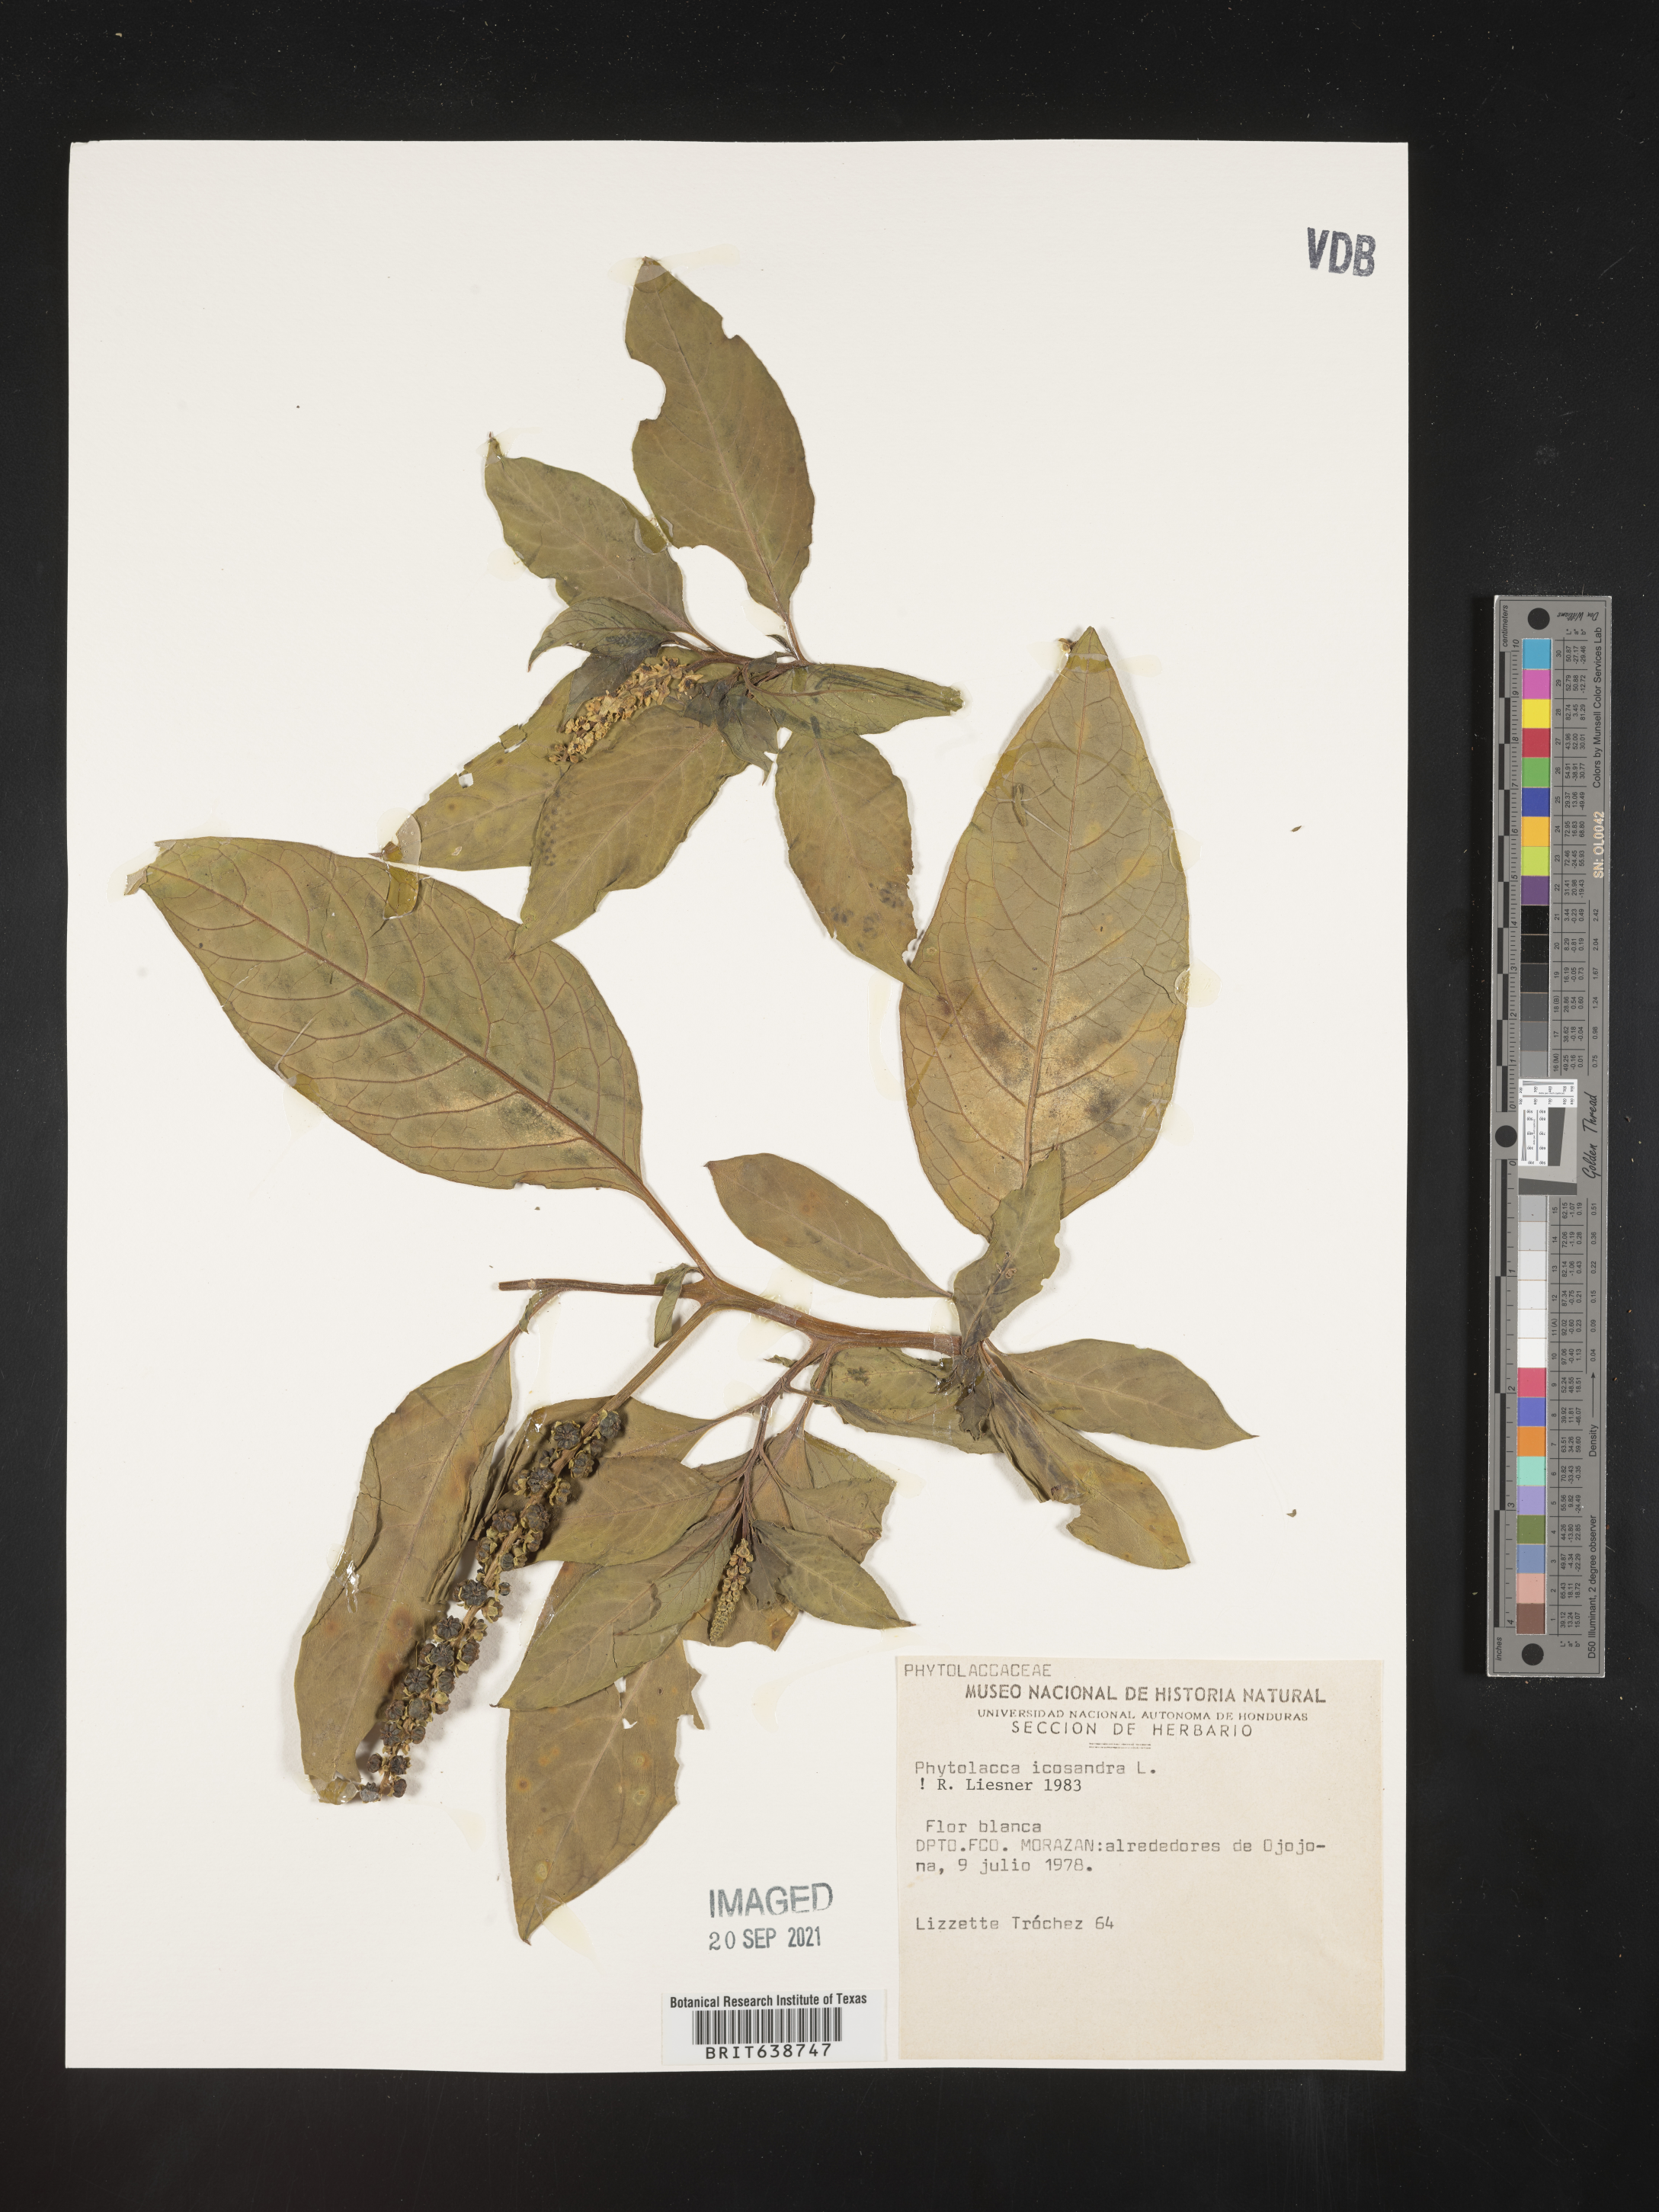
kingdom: Plantae
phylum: Tracheophyta
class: Magnoliopsida
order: Caryophyllales
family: Phytolaccaceae
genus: Phytolacca
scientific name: Phytolacca
